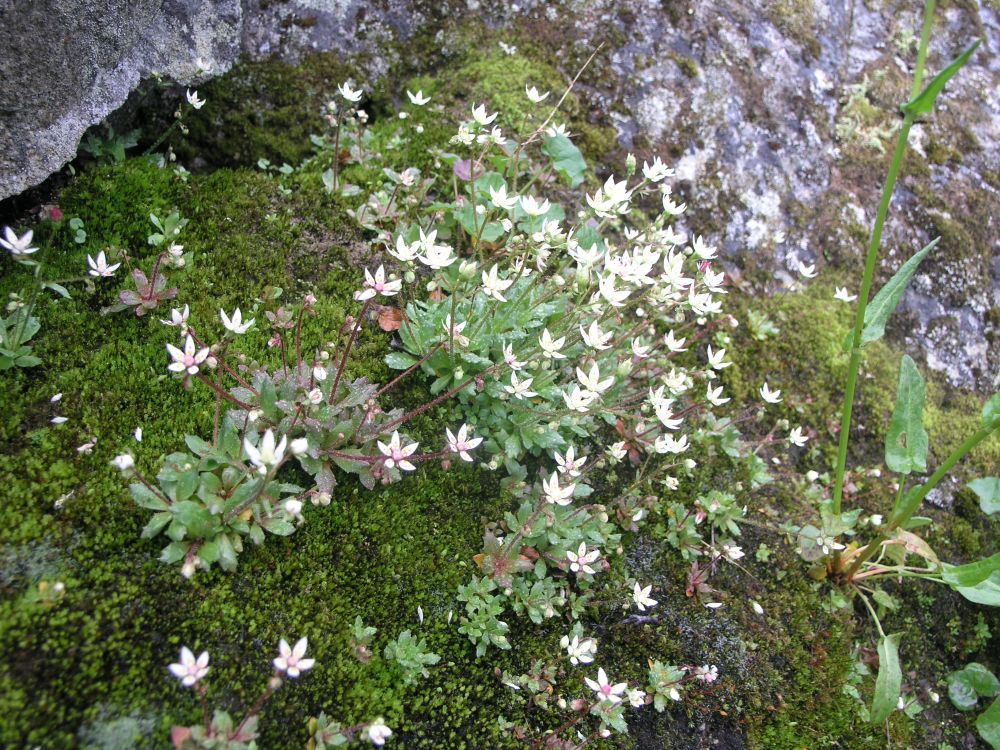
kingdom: Plantae
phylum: Tracheophyta
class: Magnoliopsida
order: Saxifragales
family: Saxifragaceae
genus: Micranthes
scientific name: Micranthes stellaris
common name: Starry saxifrage
